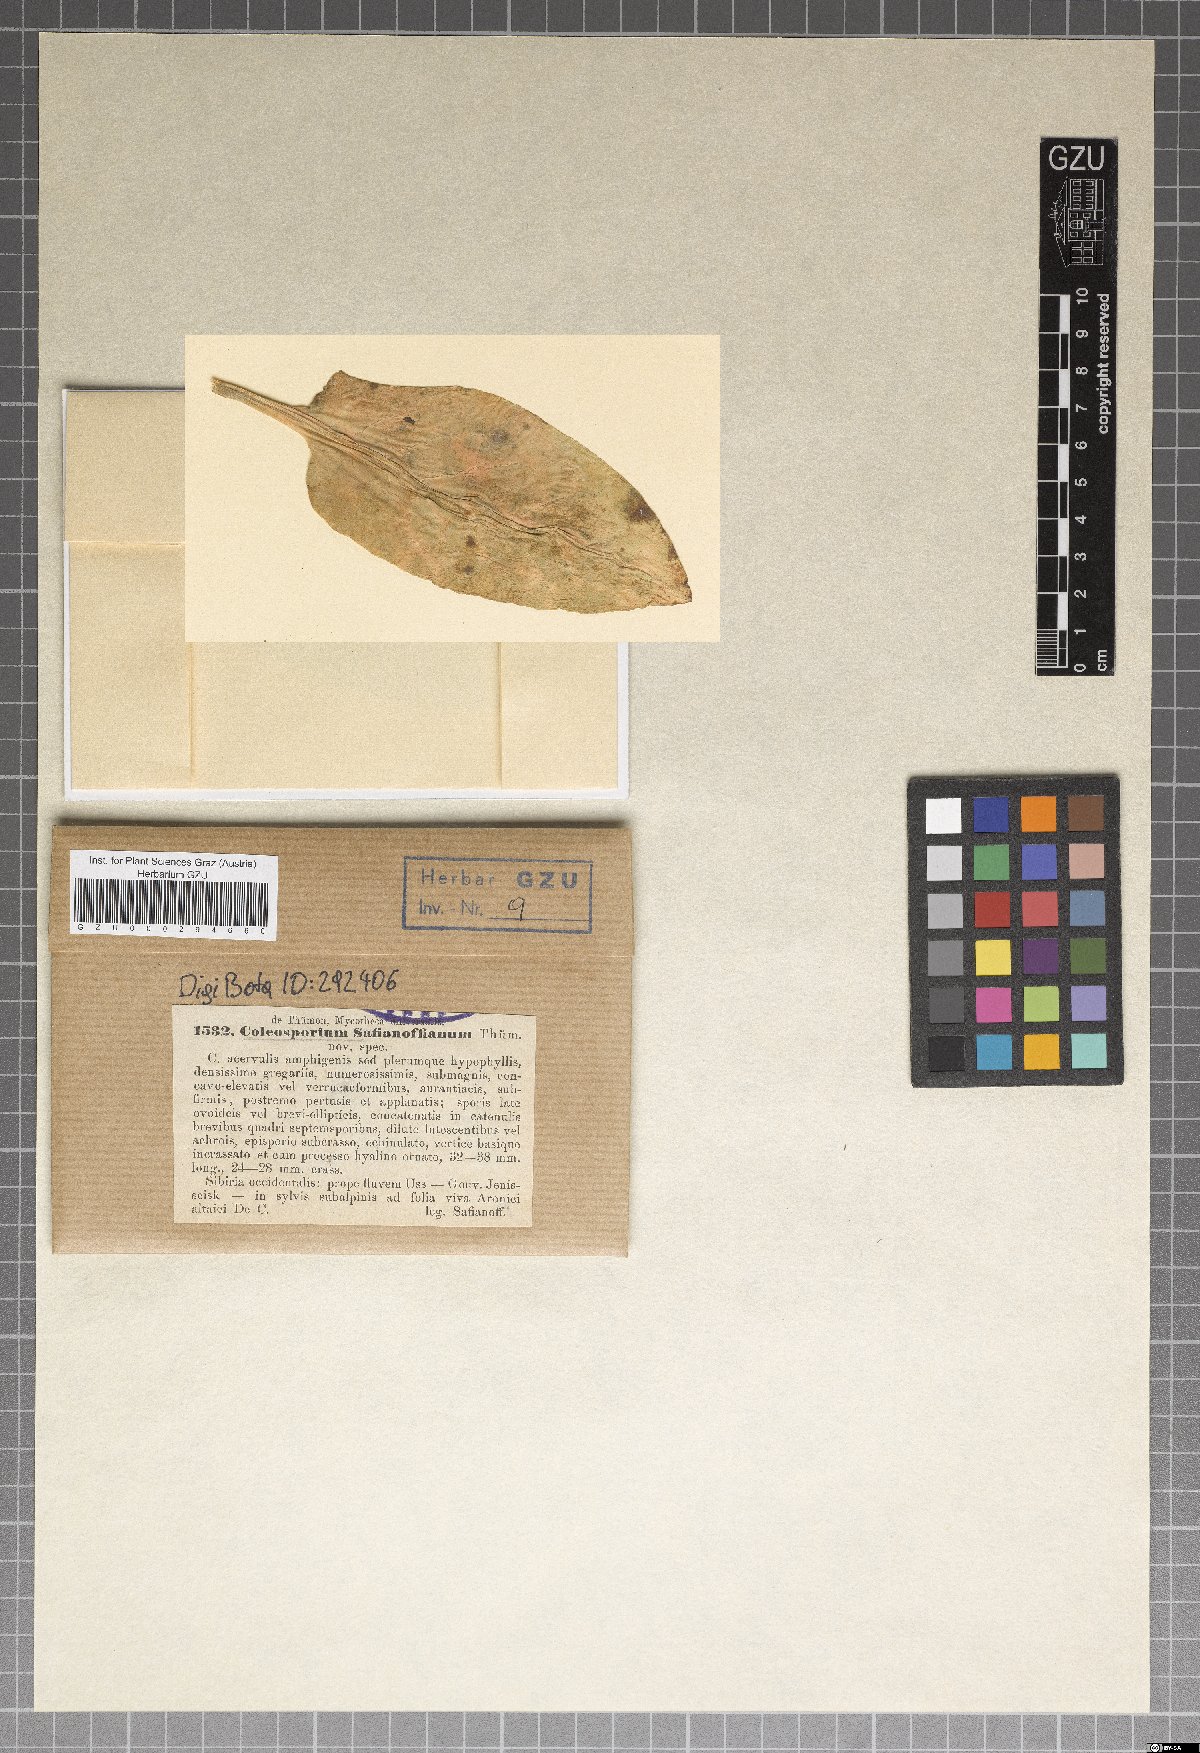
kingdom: Fungi
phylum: Basidiomycota
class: Pucciniomycetes
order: Pucciniales
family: Coleosporiaceae
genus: Coleosporium
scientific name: Coleosporium
